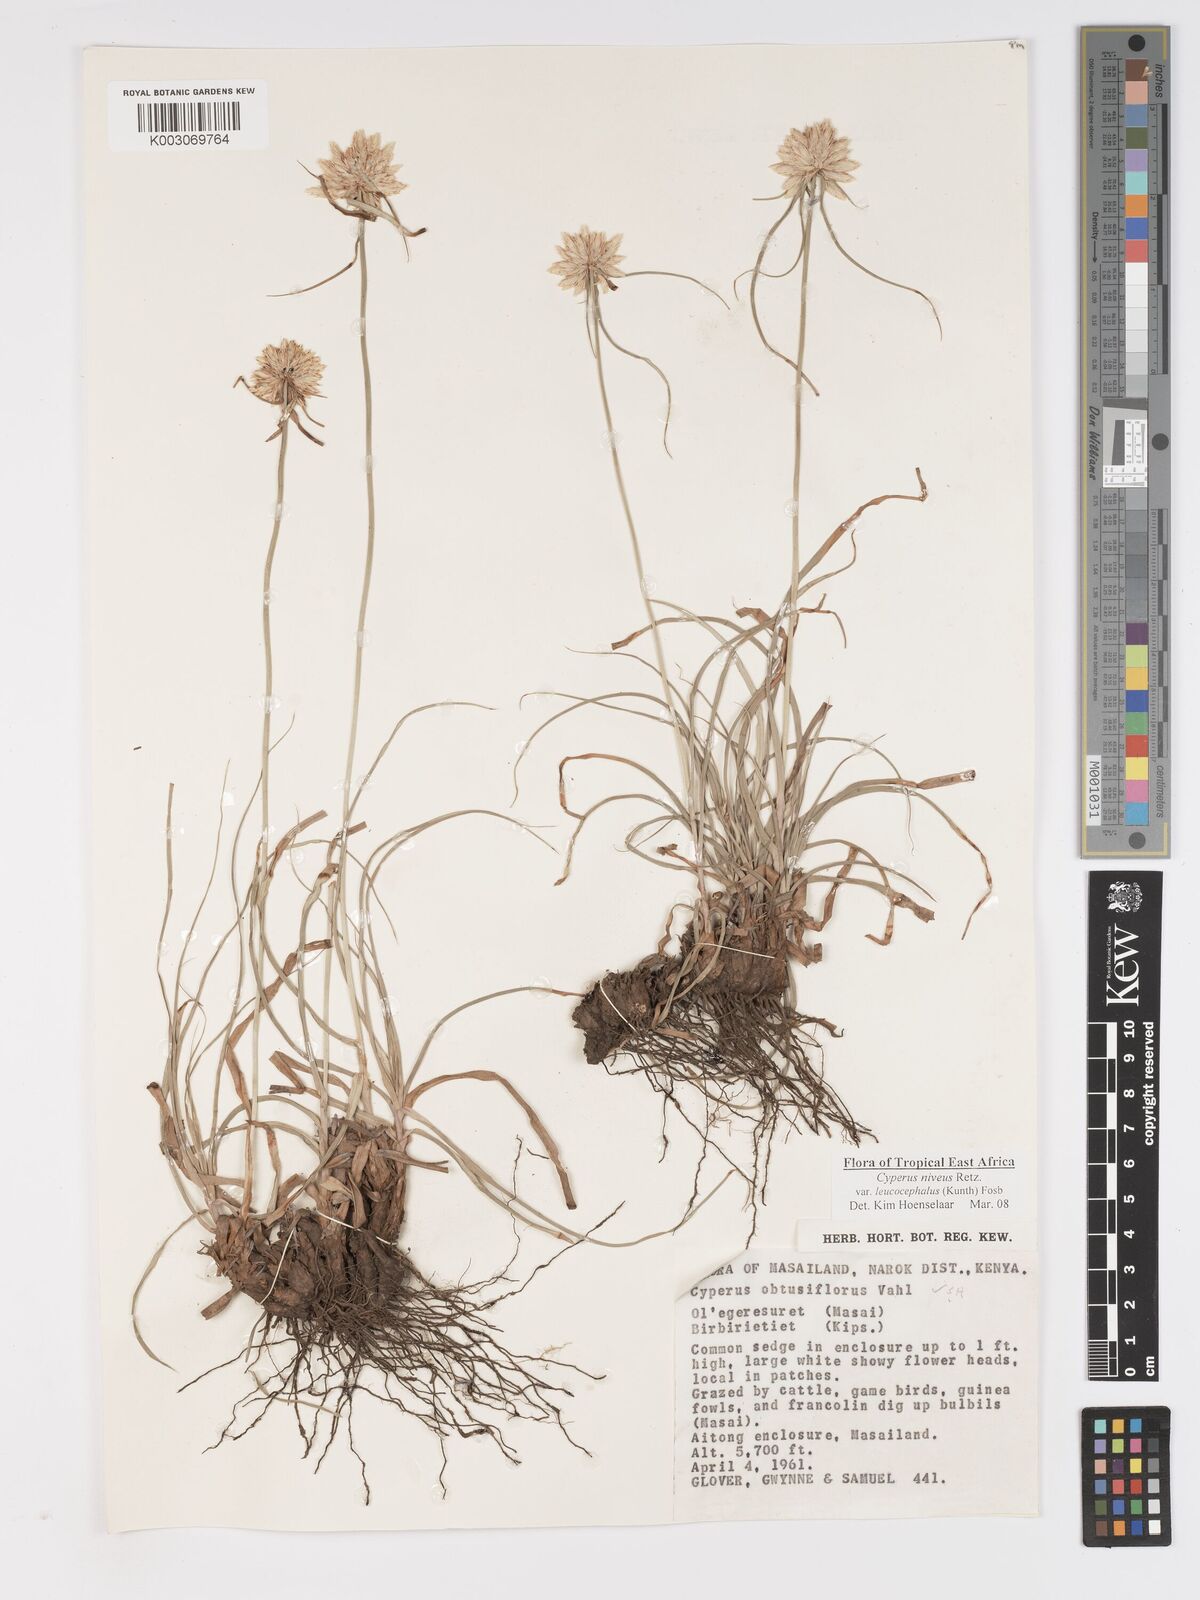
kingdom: Plantae
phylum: Tracheophyta
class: Liliopsida
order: Poales
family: Cyperaceae
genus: Cyperus
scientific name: Cyperus niveus
